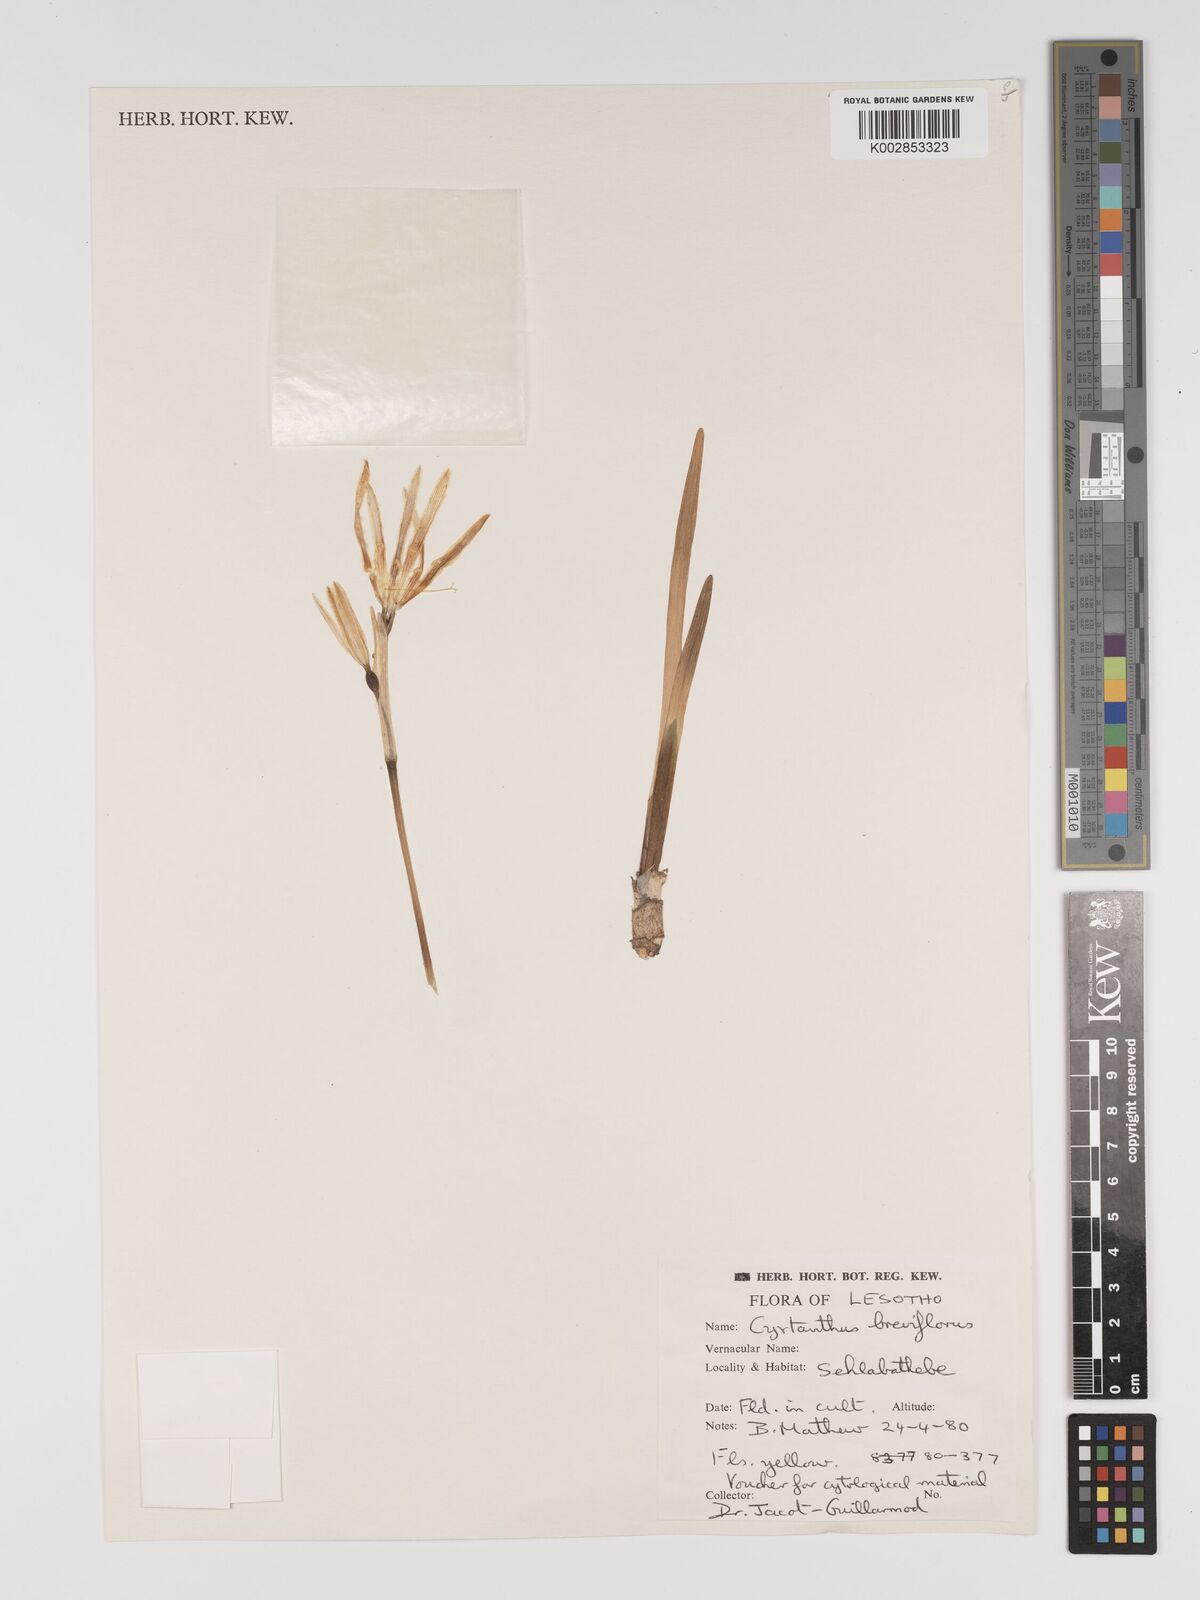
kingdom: Plantae
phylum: Tracheophyta
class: Liliopsida
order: Asparagales
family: Amaryllidaceae
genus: Cyrtanthus
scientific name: Cyrtanthus breviflorus
